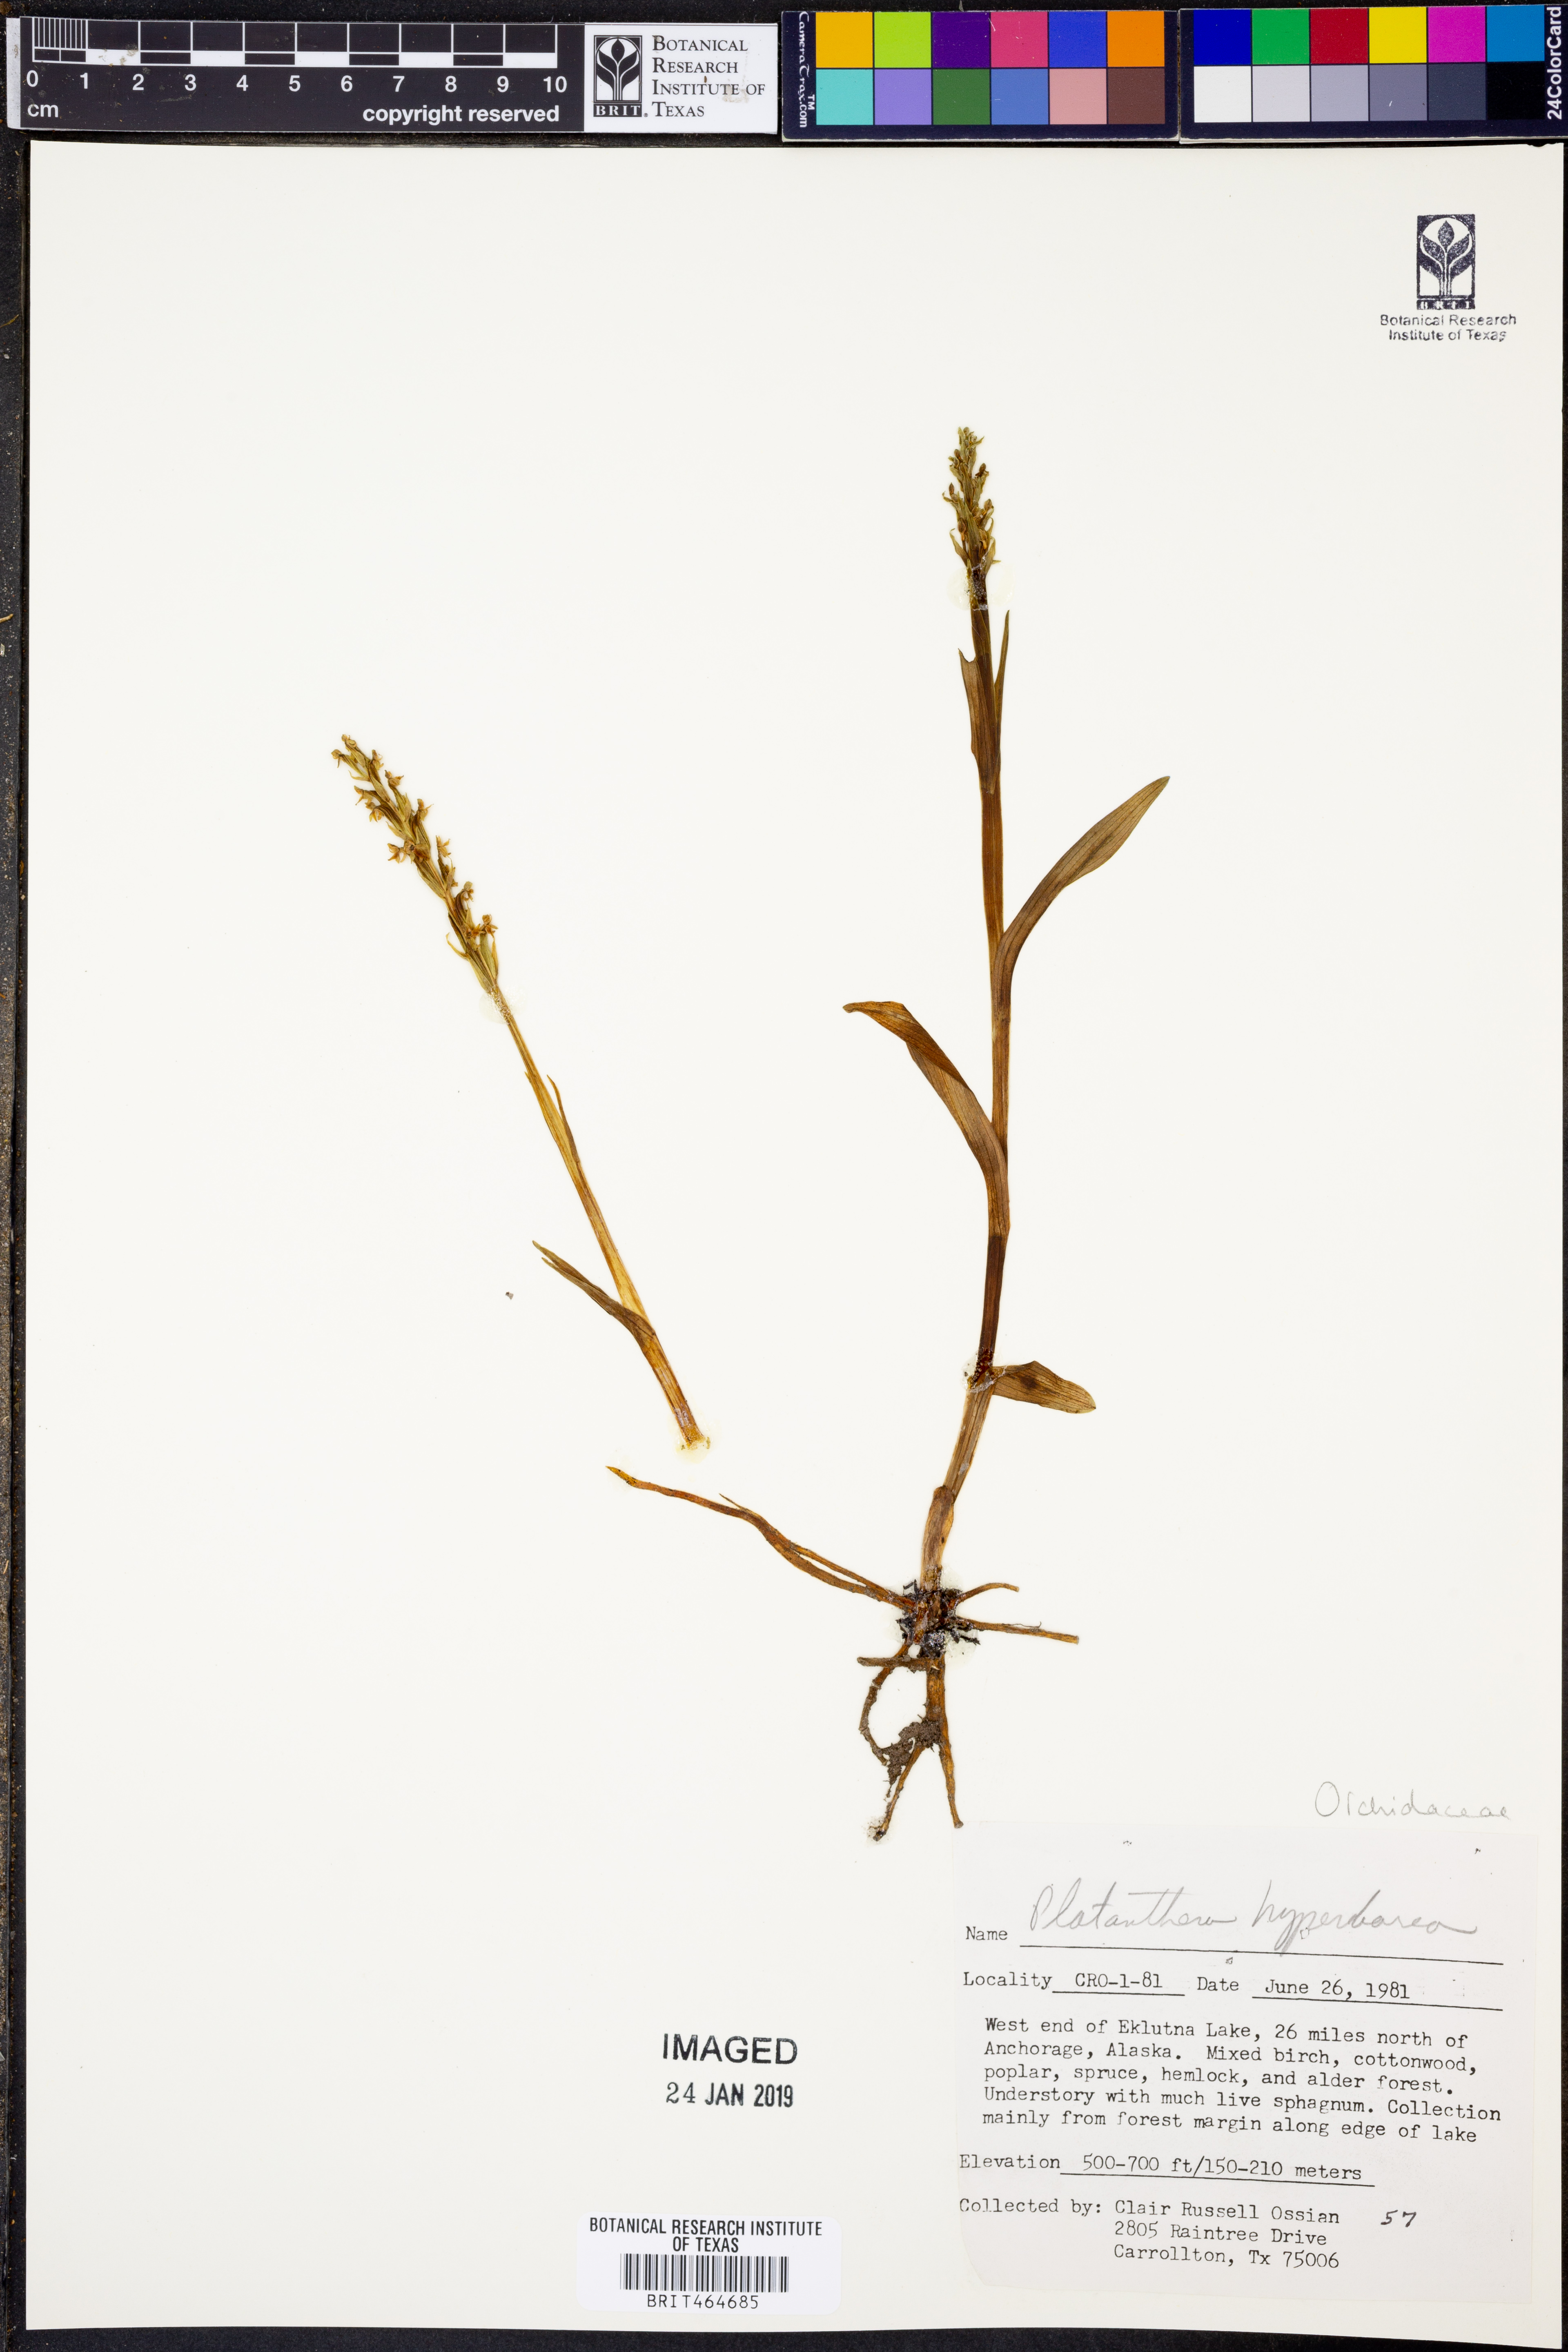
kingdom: Plantae
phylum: Tracheophyta
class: Liliopsida
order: Asparagales
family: Orchidaceae
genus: Platanthera
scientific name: Platanthera hyperborea
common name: Northern green orchid
